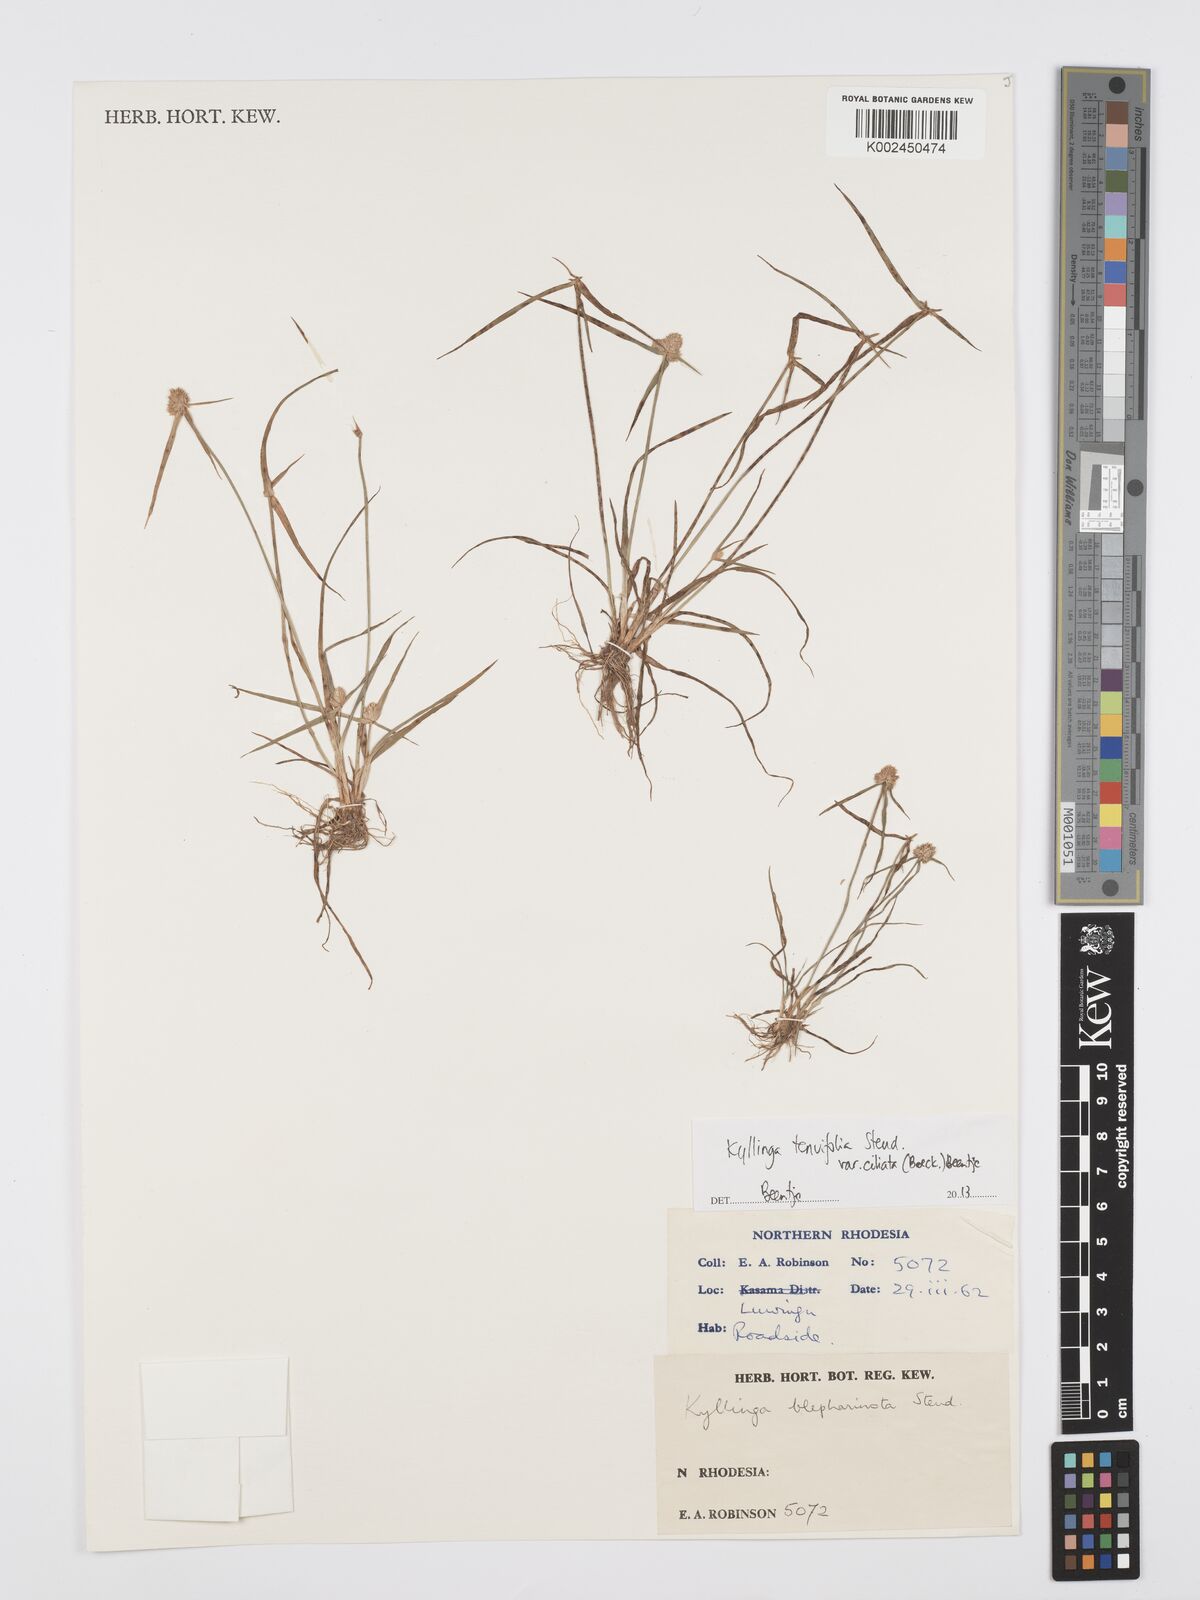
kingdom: Plantae
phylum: Tracheophyta
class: Liliopsida
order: Poales
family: Cyperaceae
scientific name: Cyperaceae
